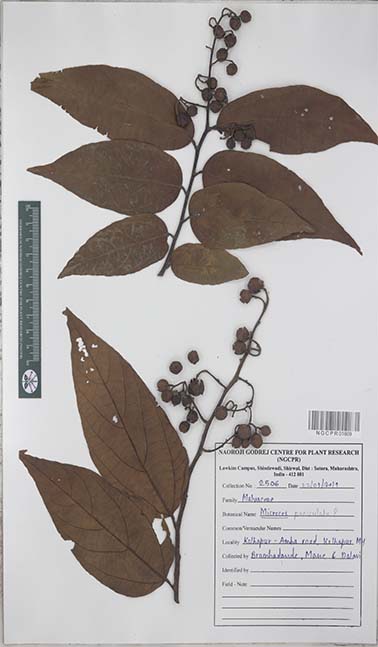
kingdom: Plantae
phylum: Tracheophyta
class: Magnoliopsida
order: Malvales
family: Malvaceae
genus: Microcos
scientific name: Microcos paniculata
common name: Microcos
